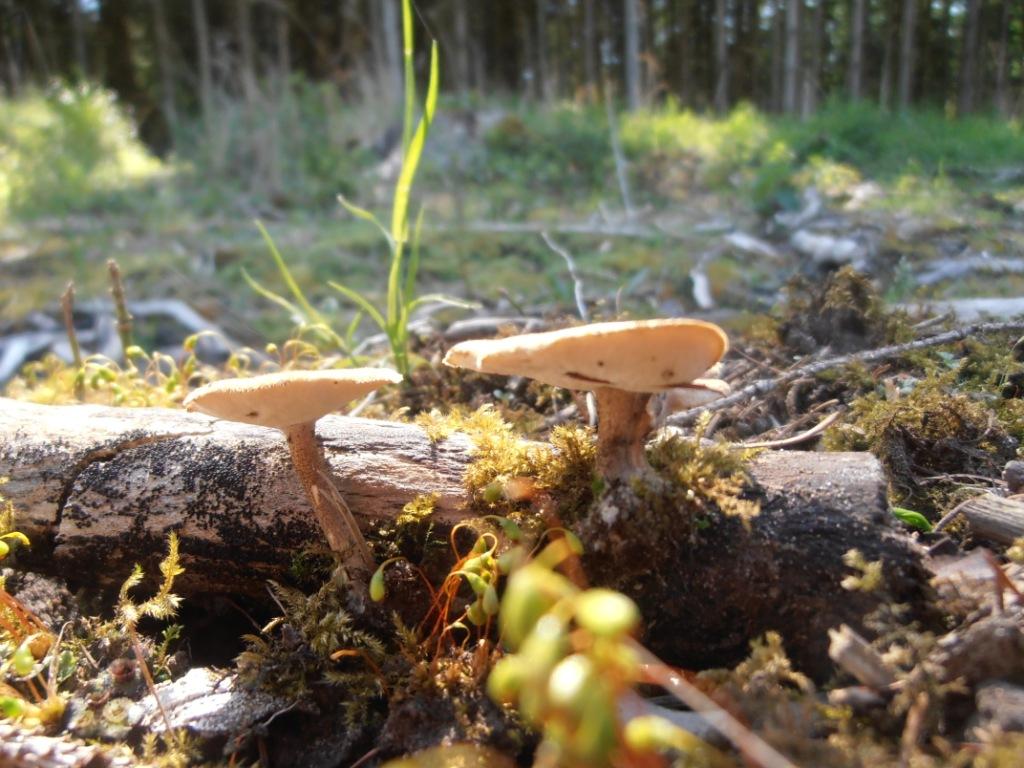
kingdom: Fungi
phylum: Basidiomycota
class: Agaricomycetes
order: Polyporales
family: Polyporaceae
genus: Lentinus
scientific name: Lentinus substrictus
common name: forårs-stilkporesvamp
